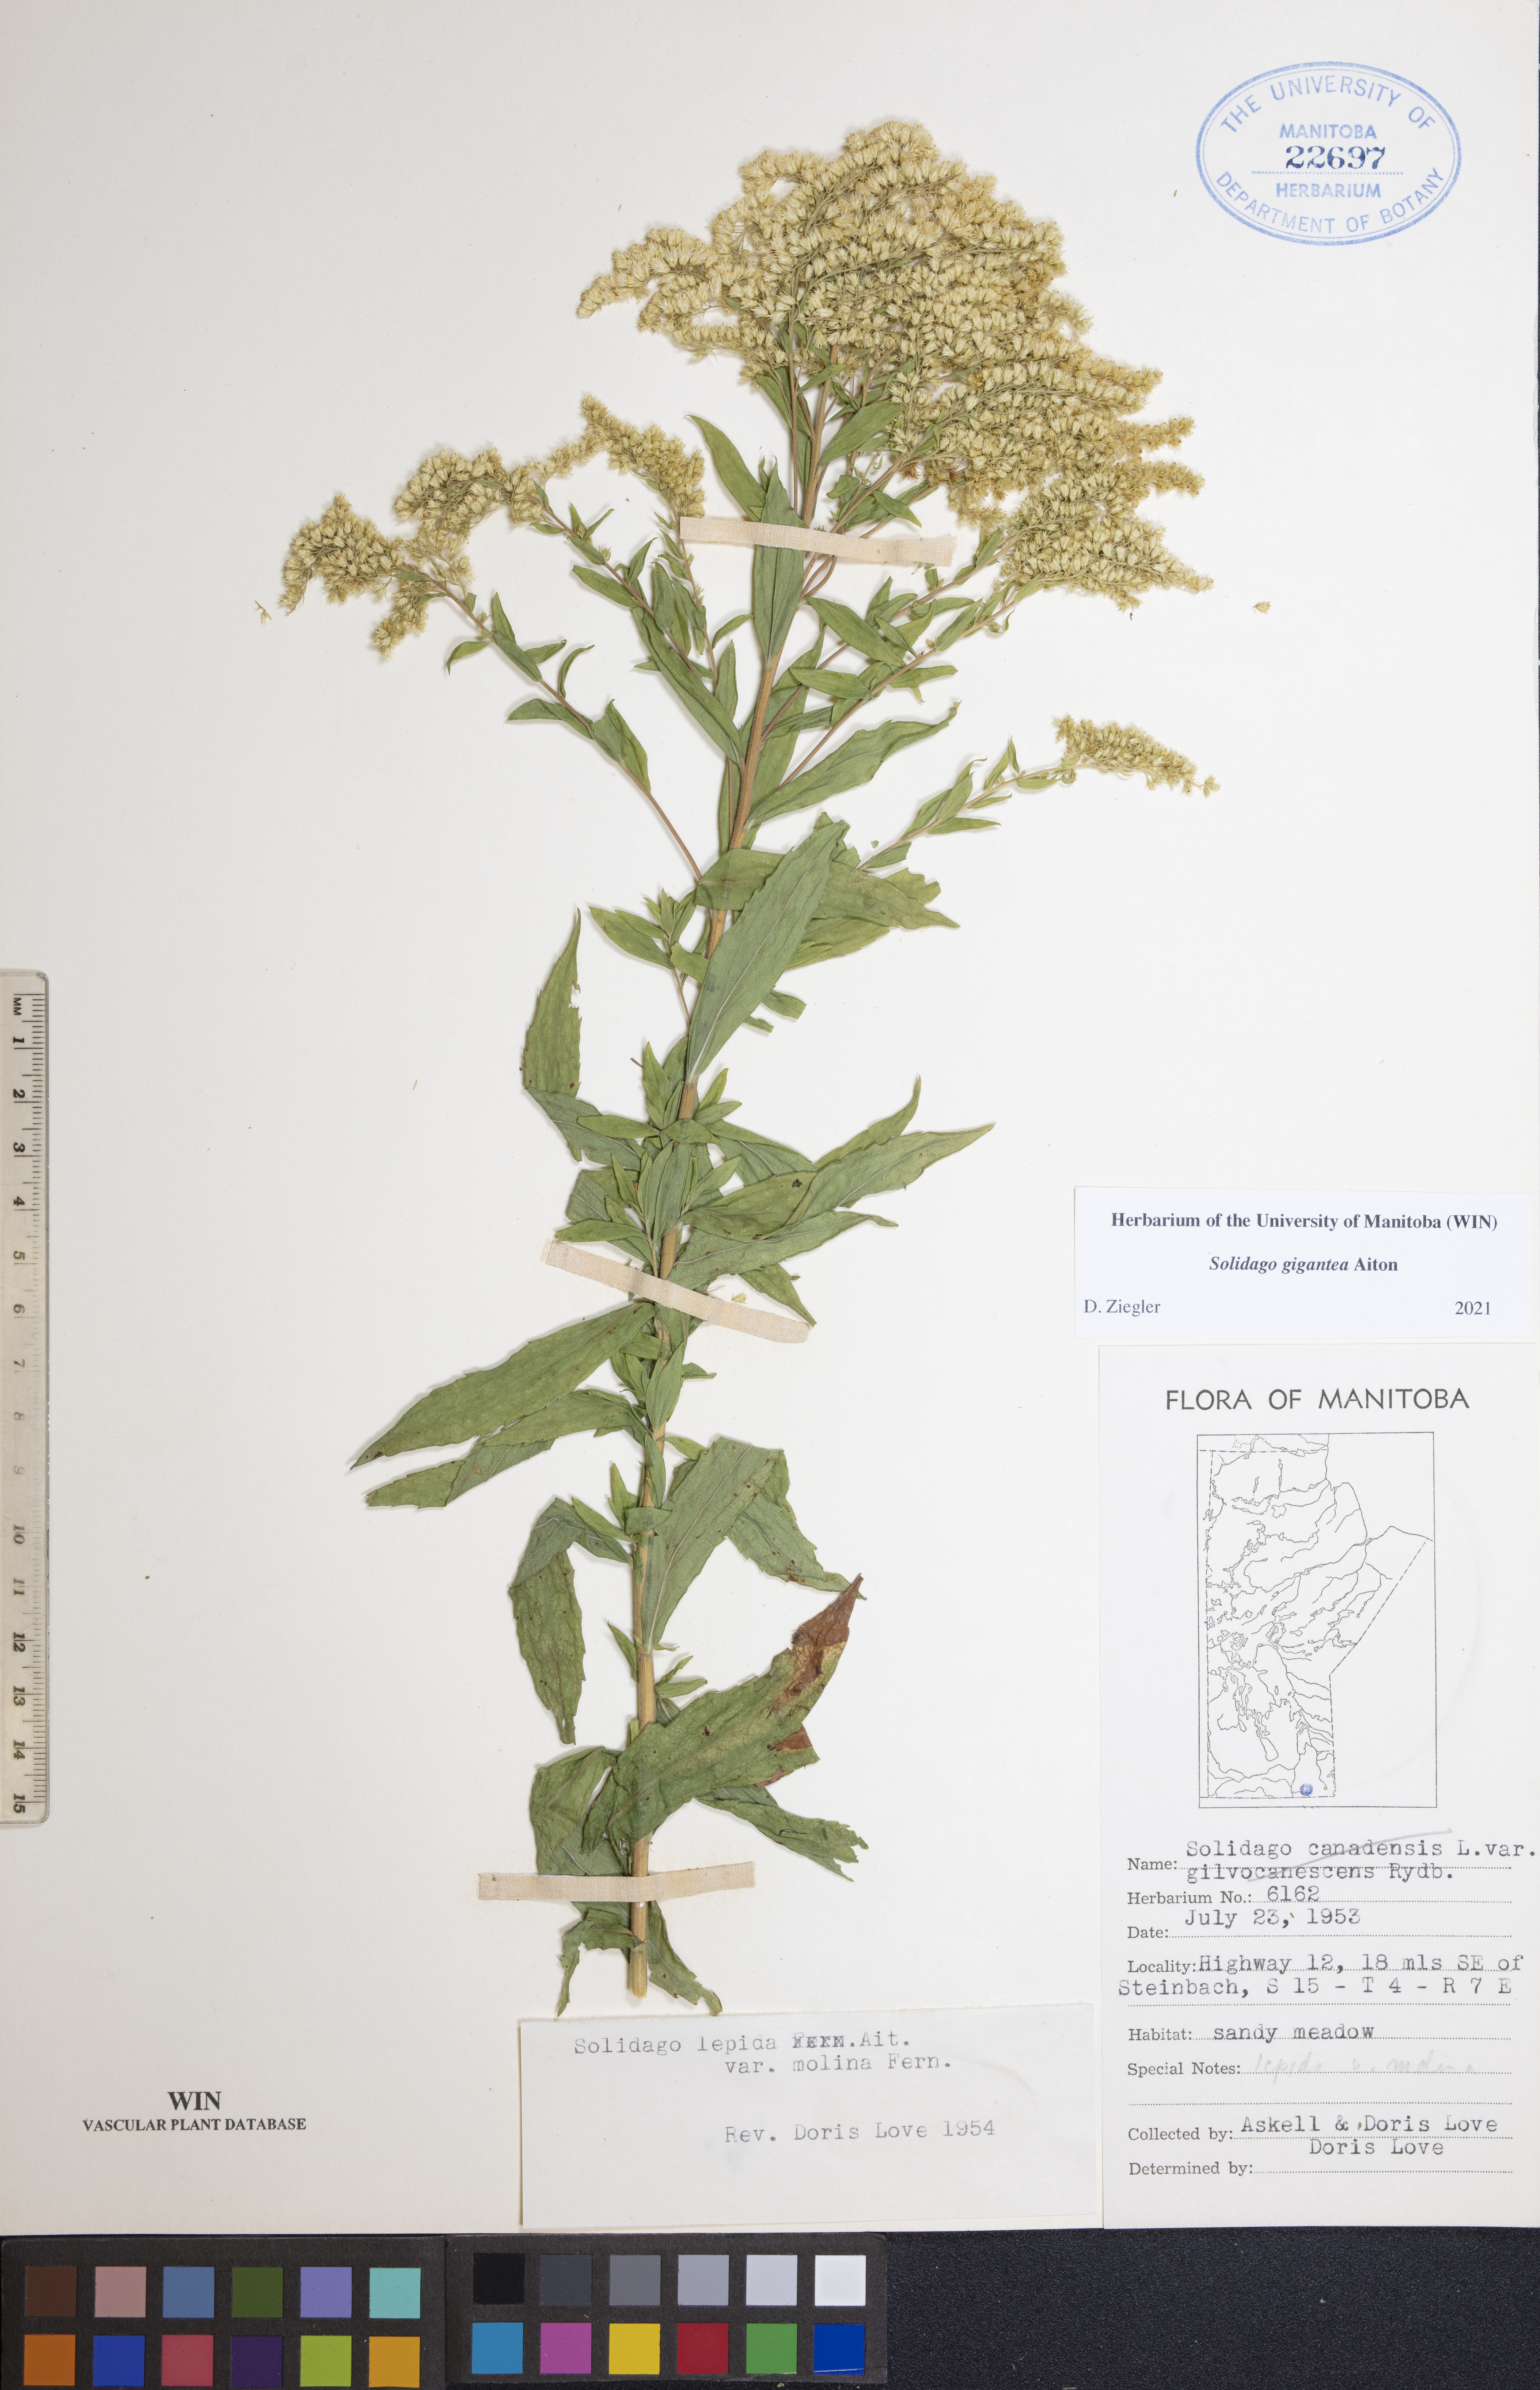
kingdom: Plantae
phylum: Tracheophyta
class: Magnoliopsida
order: Asterales
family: Asteraceae
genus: Solidago
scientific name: Solidago gigantea
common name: Giant goldenrod
